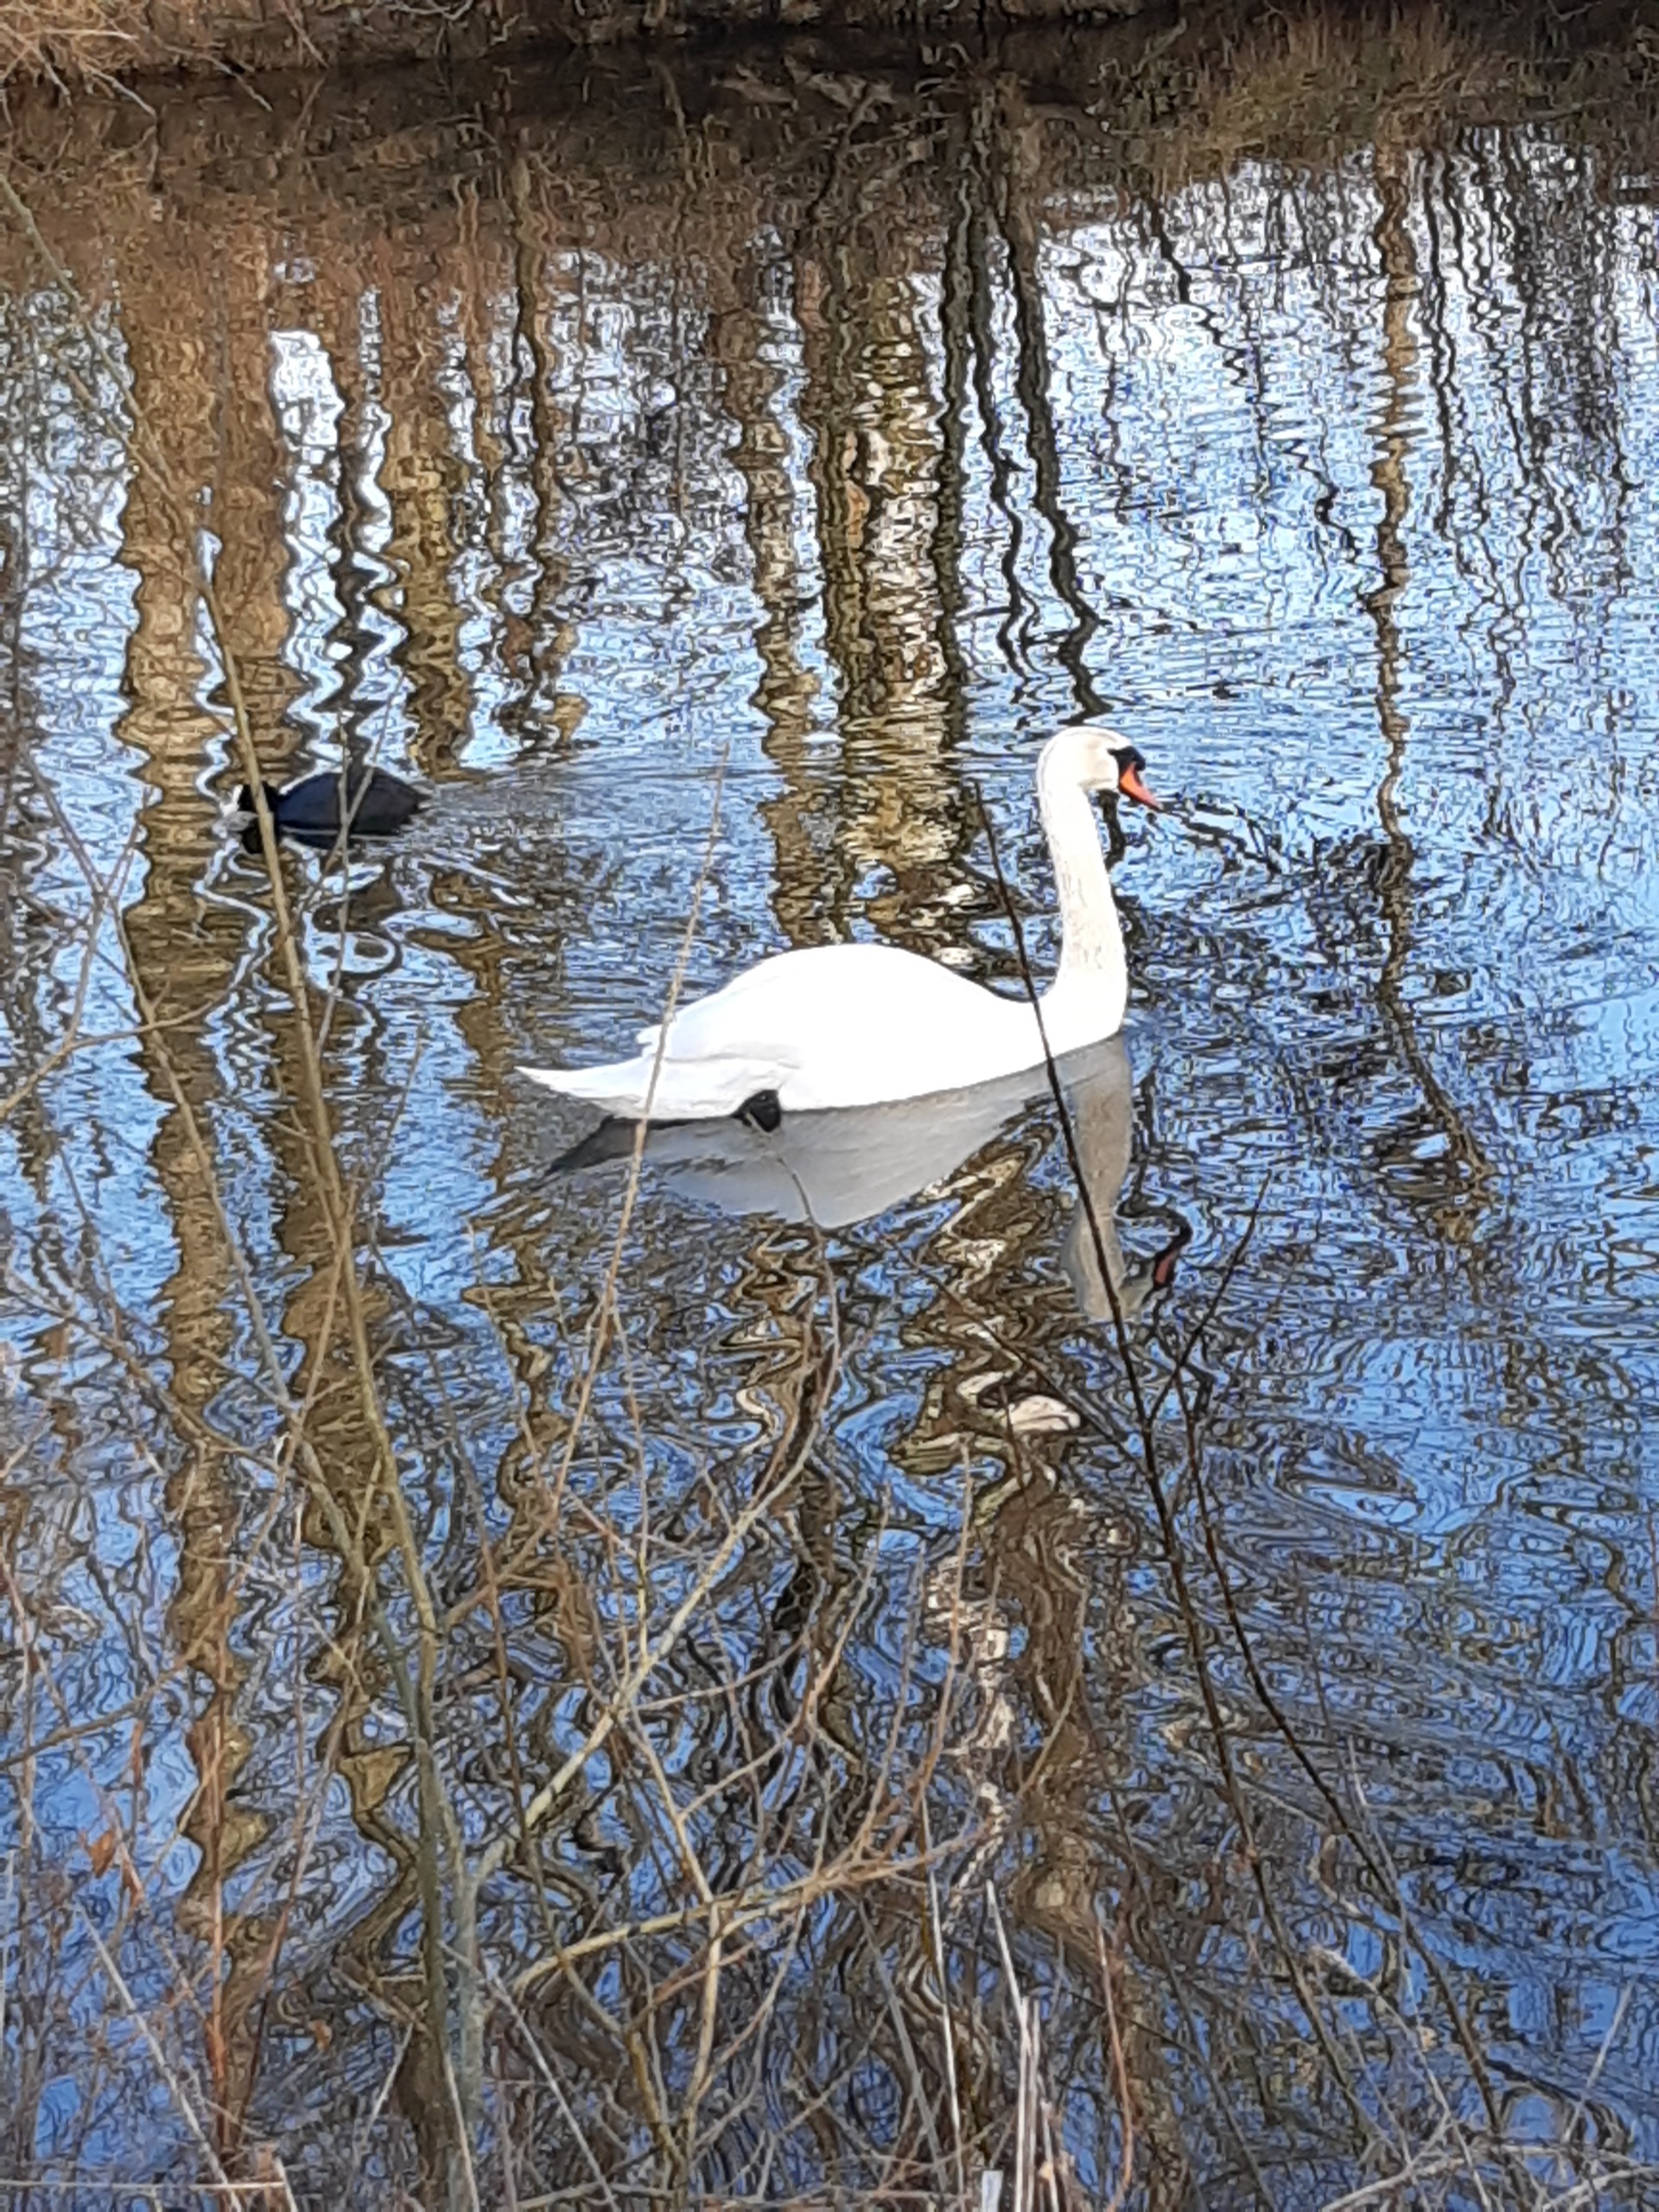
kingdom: Animalia
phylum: Chordata
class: Aves
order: Anseriformes
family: Anatidae
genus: Cygnus
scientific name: Cygnus olor
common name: Knopsvane
